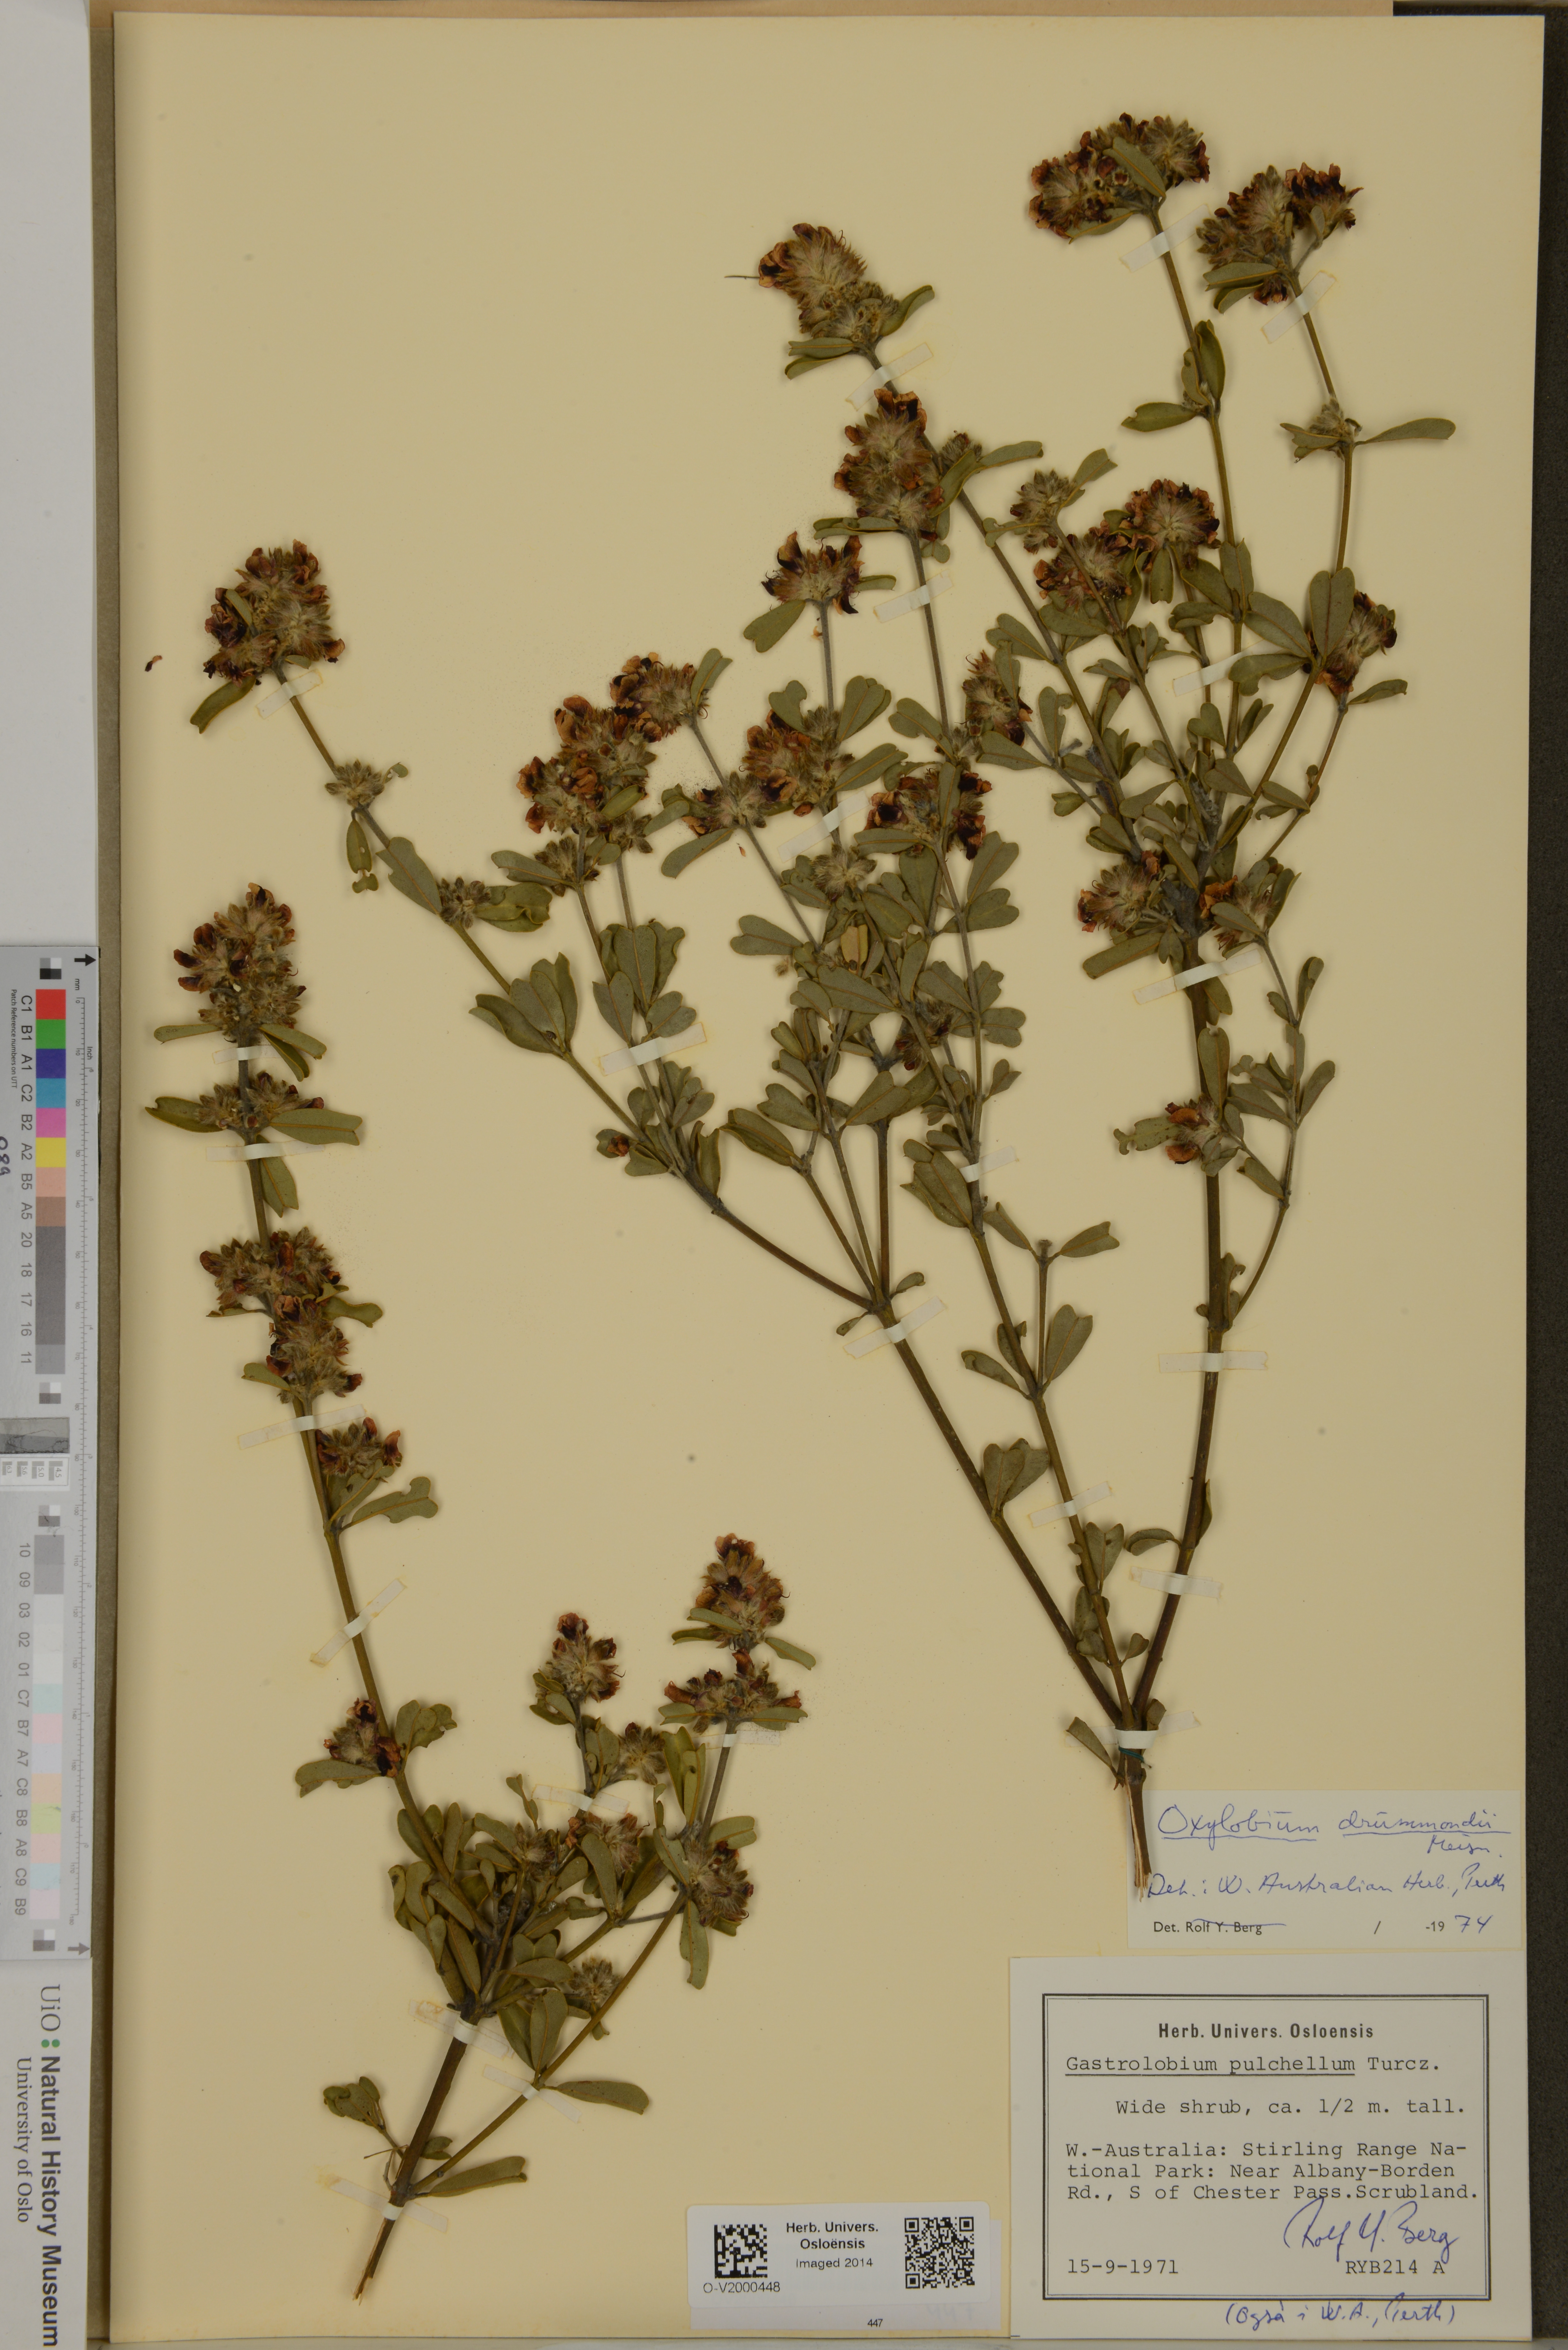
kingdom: Plantae
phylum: Tracheophyta
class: Magnoliopsida
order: Fabales
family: Fabaceae
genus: Gastrolobium
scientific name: Gastrolobium retusum
